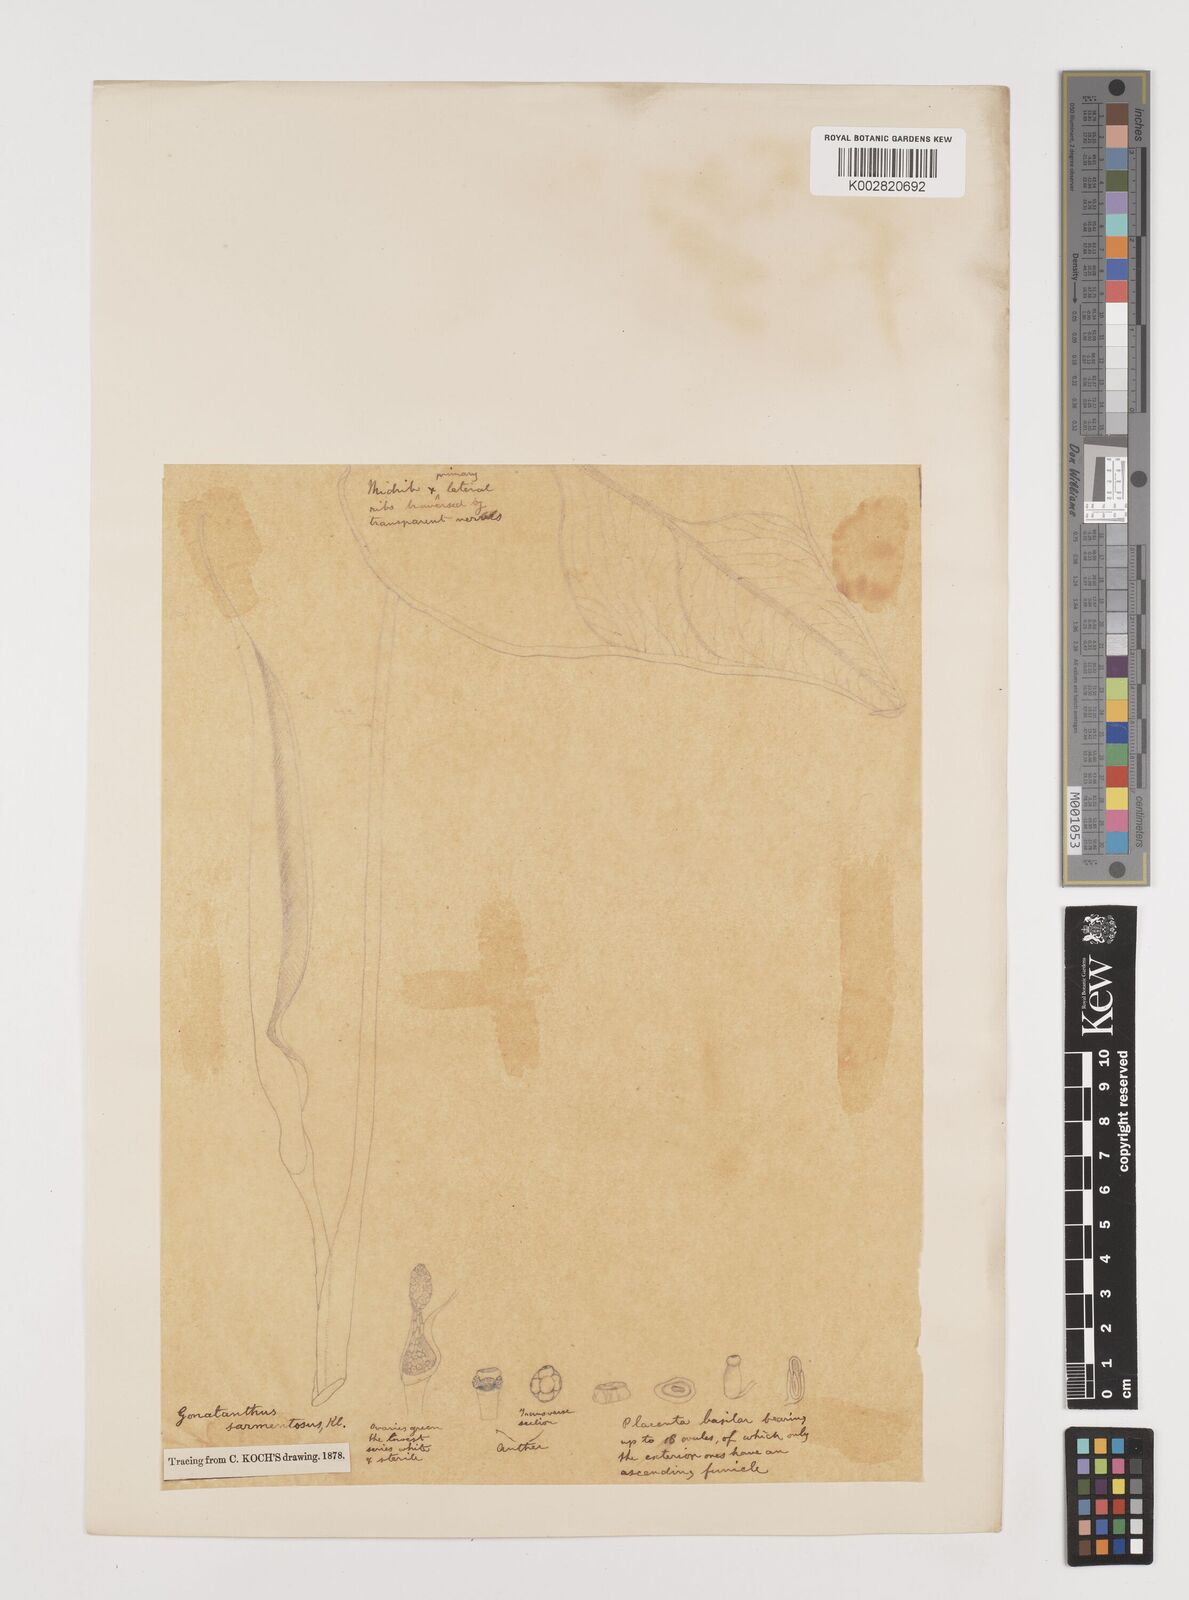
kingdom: Plantae
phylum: Tracheophyta
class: Liliopsida
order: Alismatales
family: Araceae
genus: Remusatia
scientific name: Remusatia pumila
